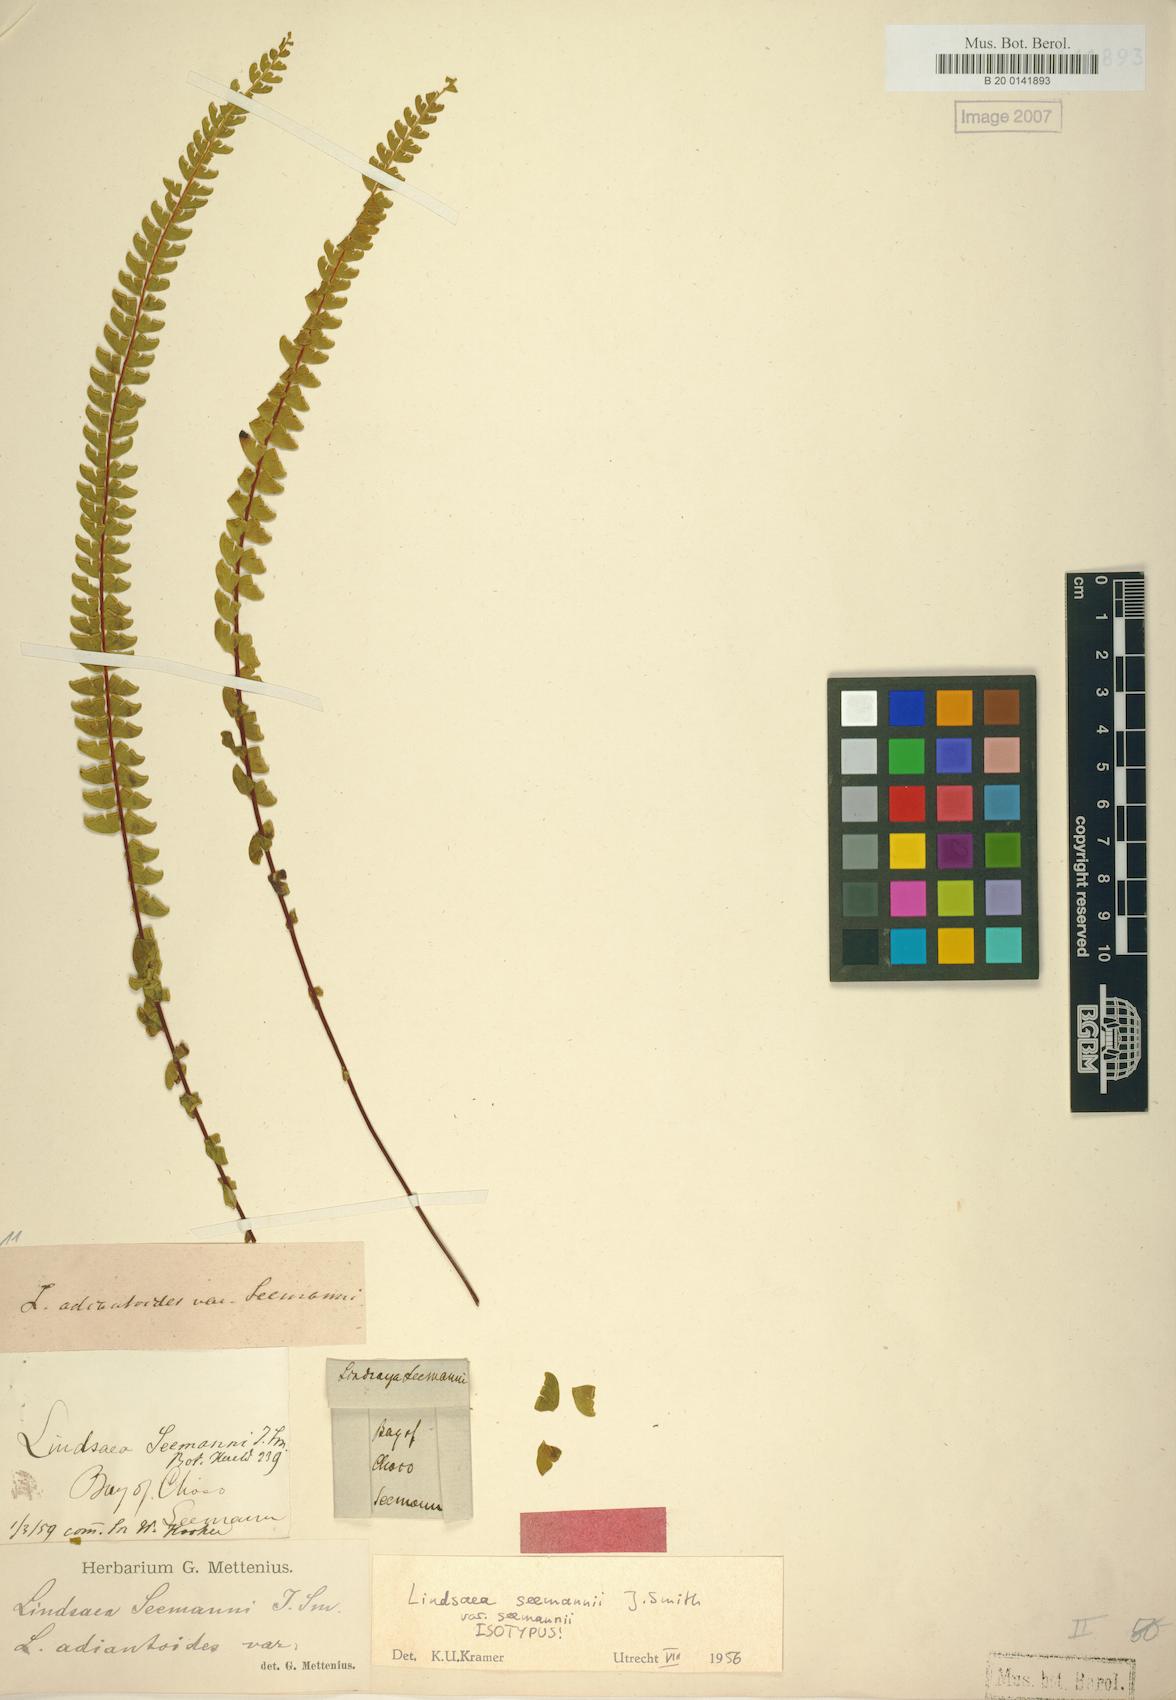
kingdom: Plantae
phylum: Tracheophyta
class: Polypodiopsida
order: Polypodiales
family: Lindsaeaceae
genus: Lindsaea
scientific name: Lindsaea seemannii
